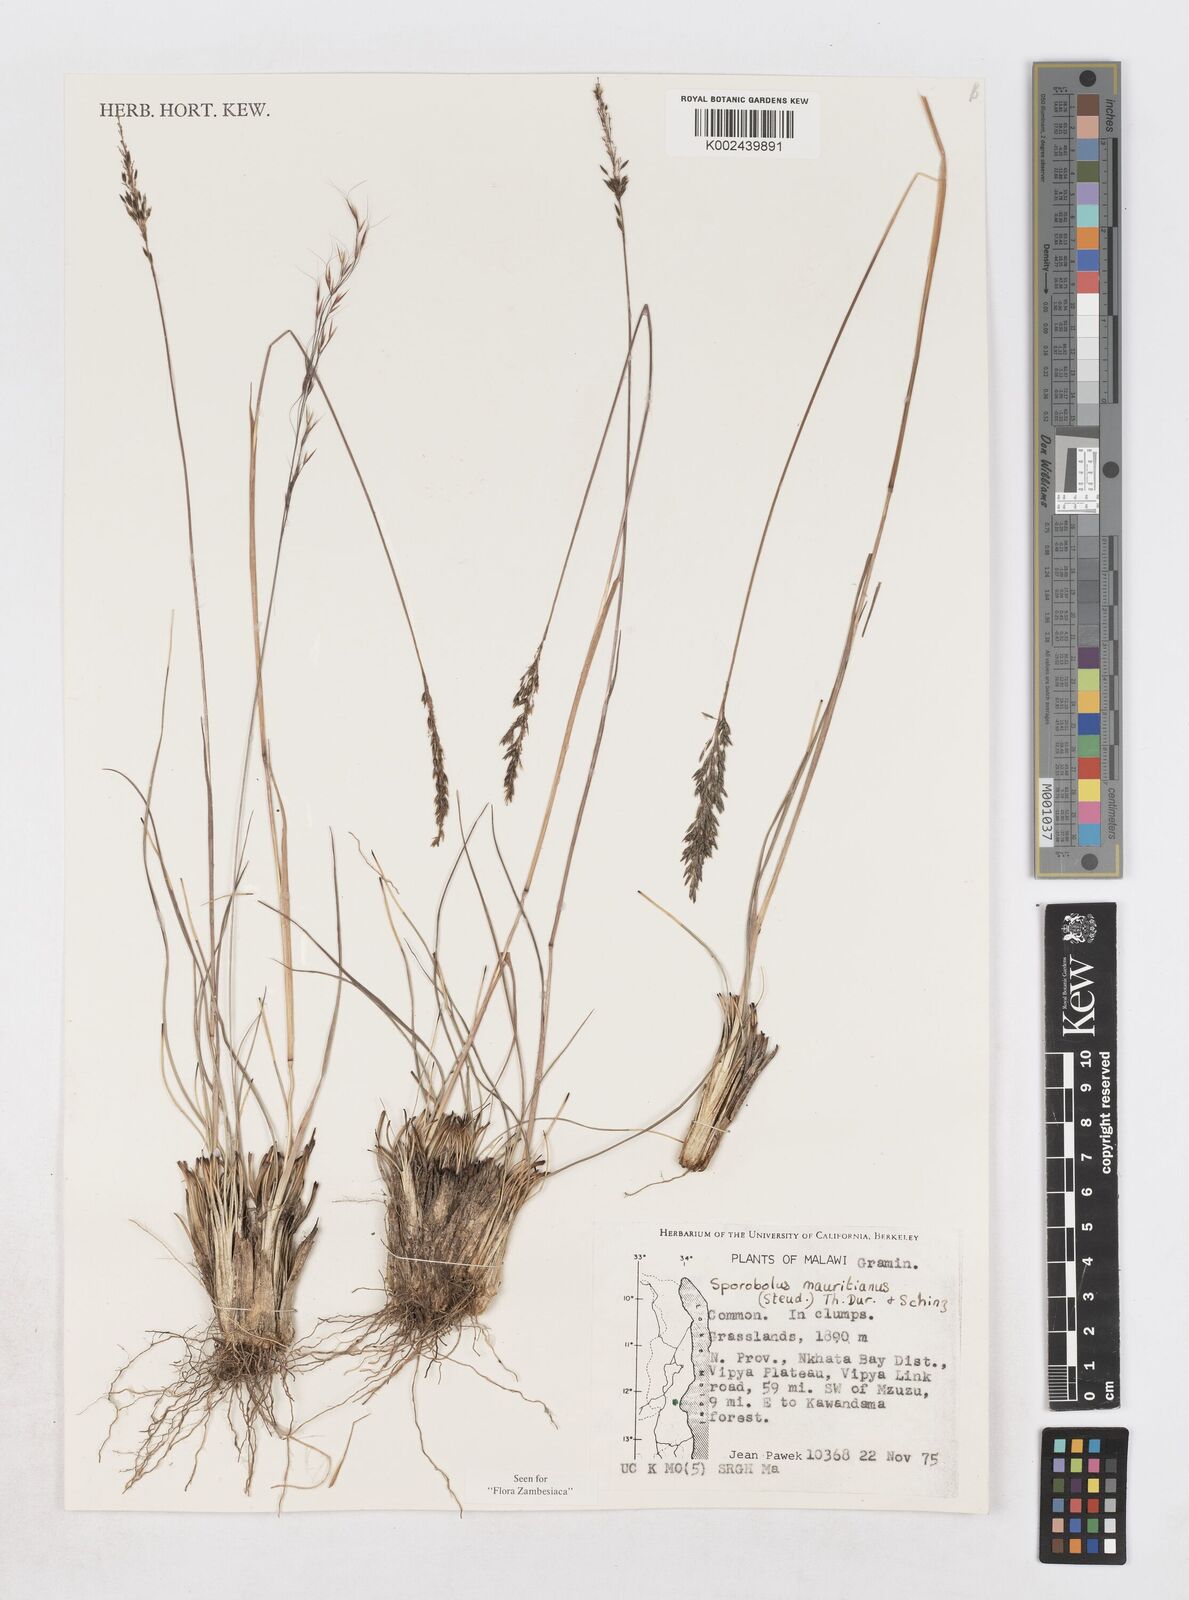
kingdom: Plantae
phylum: Tracheophyta
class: Liliopsida
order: Poales
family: Poaceae
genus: Sporobolus
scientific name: Sporobolus subulatus
